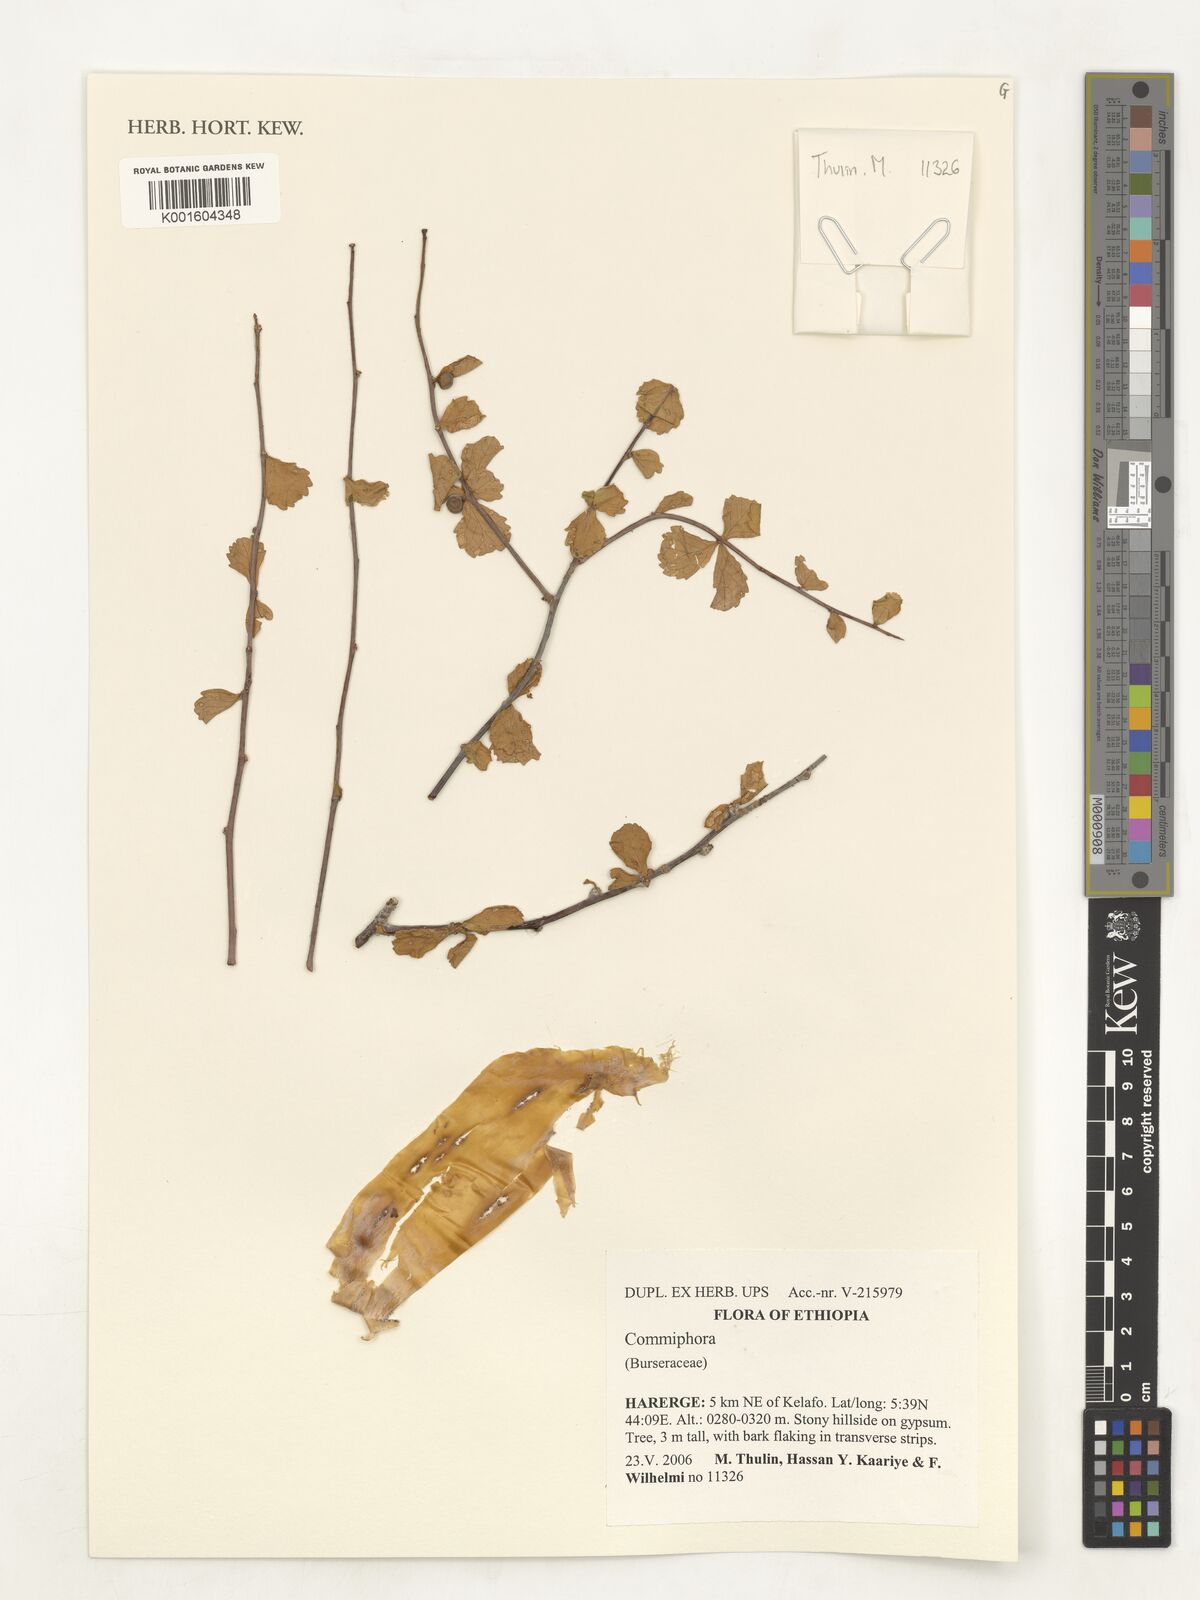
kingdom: Plantae
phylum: Tracheophyta
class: Magnoliopsida
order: Sapindales
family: Burseraceae
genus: Commiphora
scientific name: Commiphora
